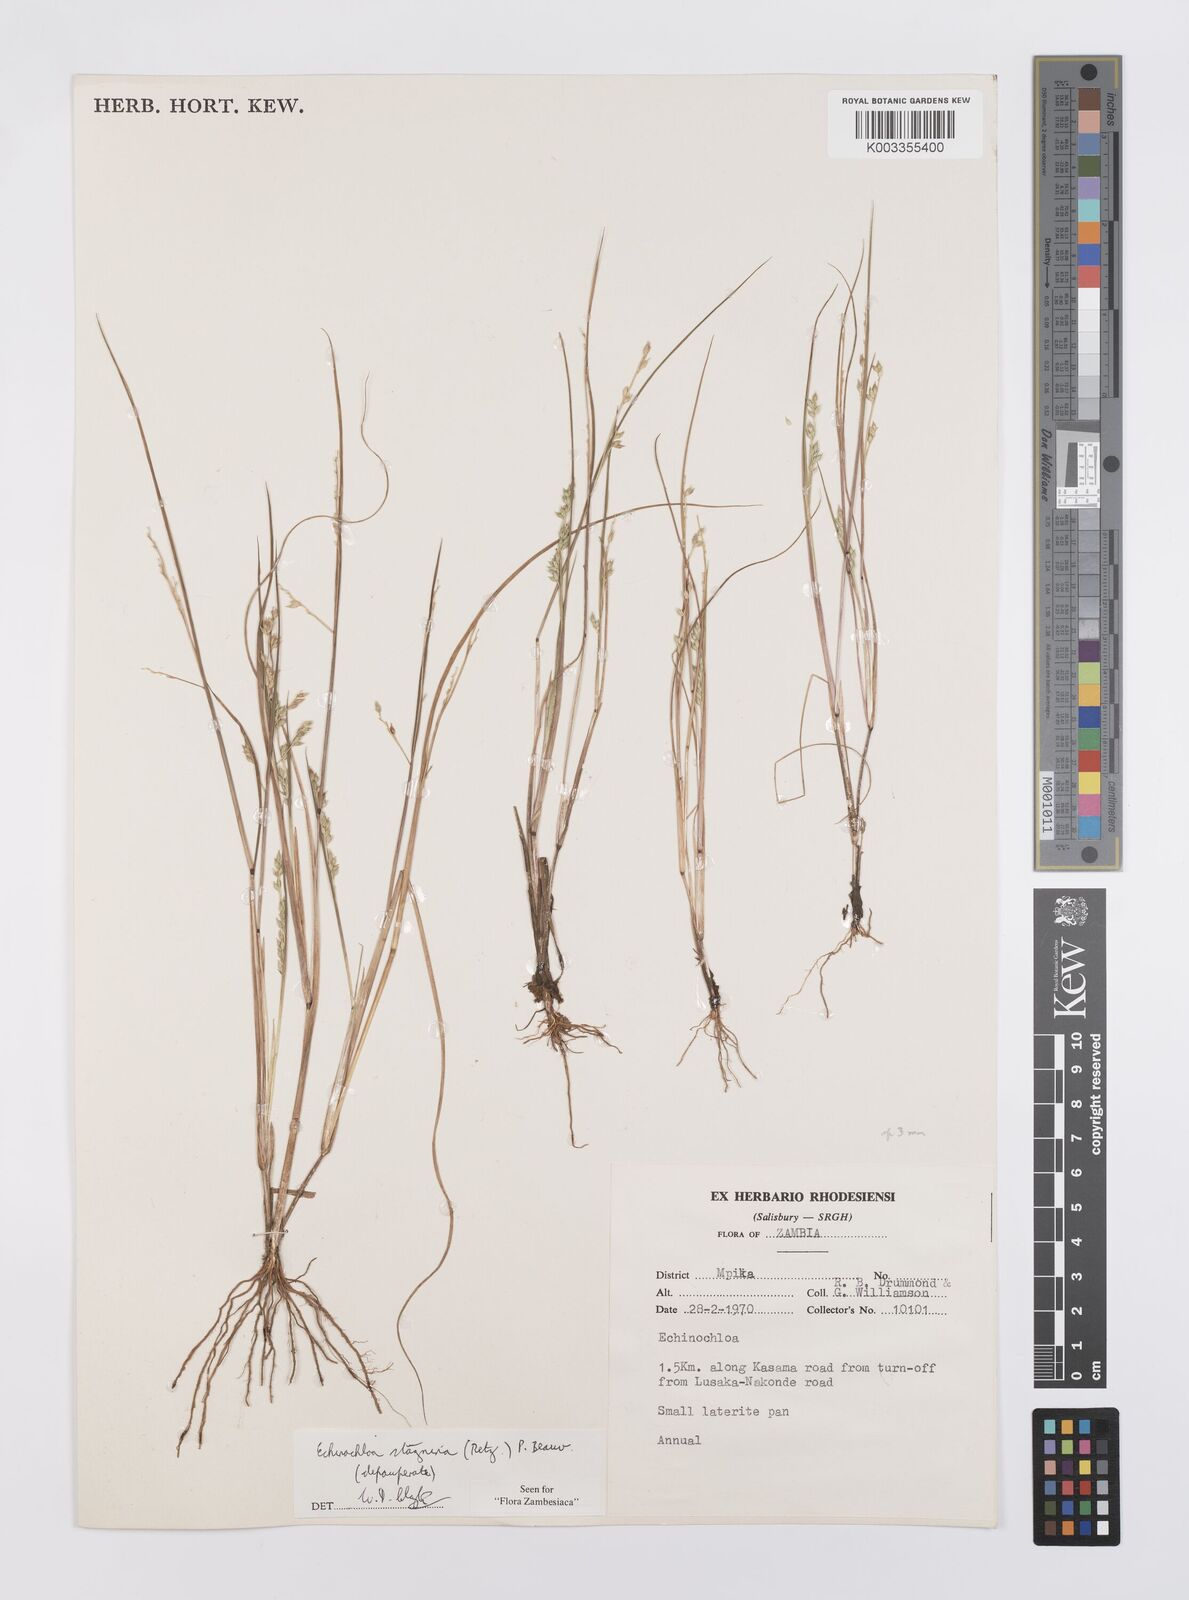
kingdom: Plantae
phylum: Tracheophyta
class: Liliopsida
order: Poales
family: Poaceae
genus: Echinochloa
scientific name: Echinochloa stagnina
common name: Burgu grass
